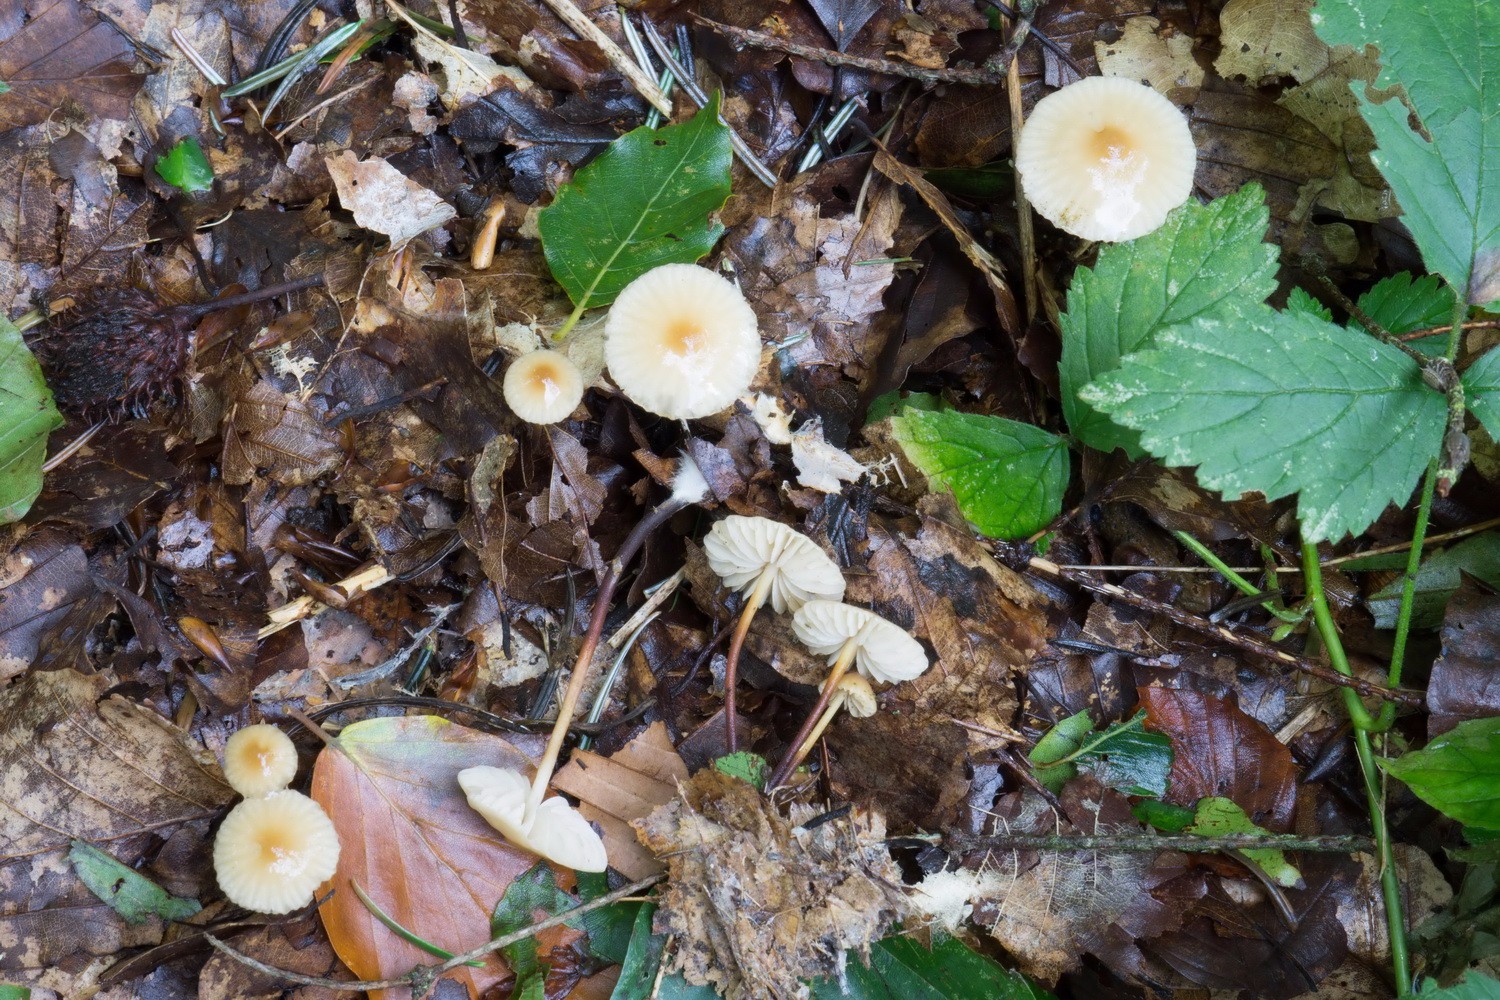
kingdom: Fungi
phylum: Basidiomycota
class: Agaricomycetes
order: Agaricales
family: Marasmiaceae
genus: Marasmius
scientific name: Marasmius torquescens
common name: filtfodet bruskhat
